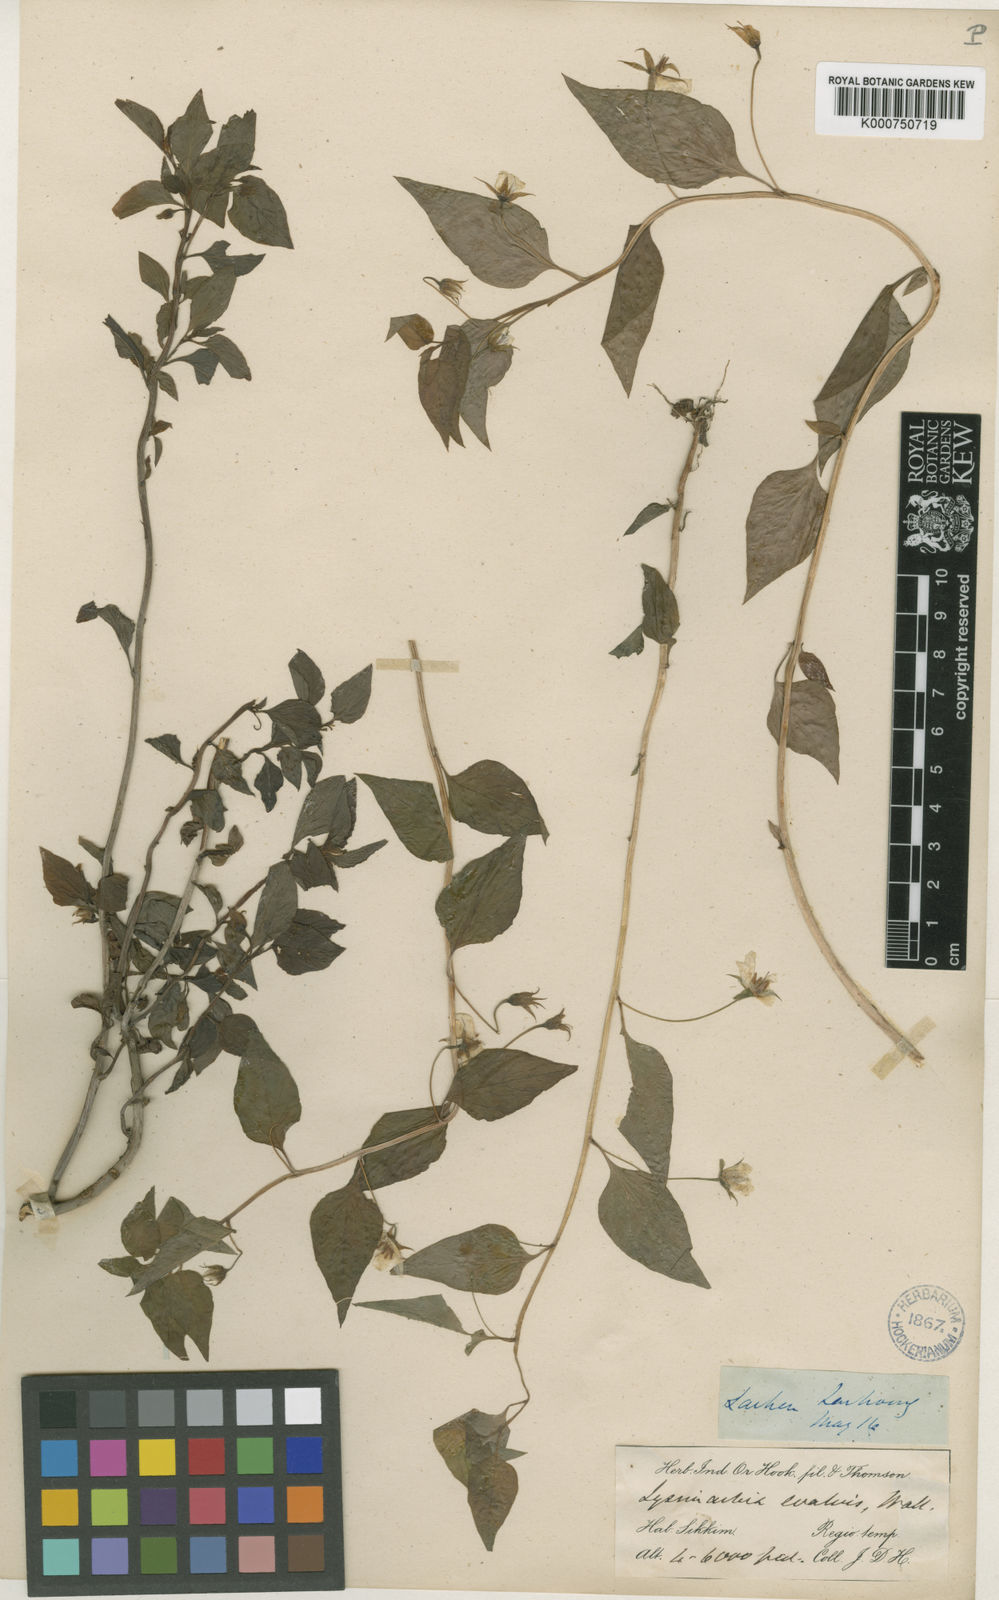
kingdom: Plantae
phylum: Tracheophyta
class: Magnoliopsida
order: Ericales
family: Primulaceae
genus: Lysimachia
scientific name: Lysimachia evalvis
